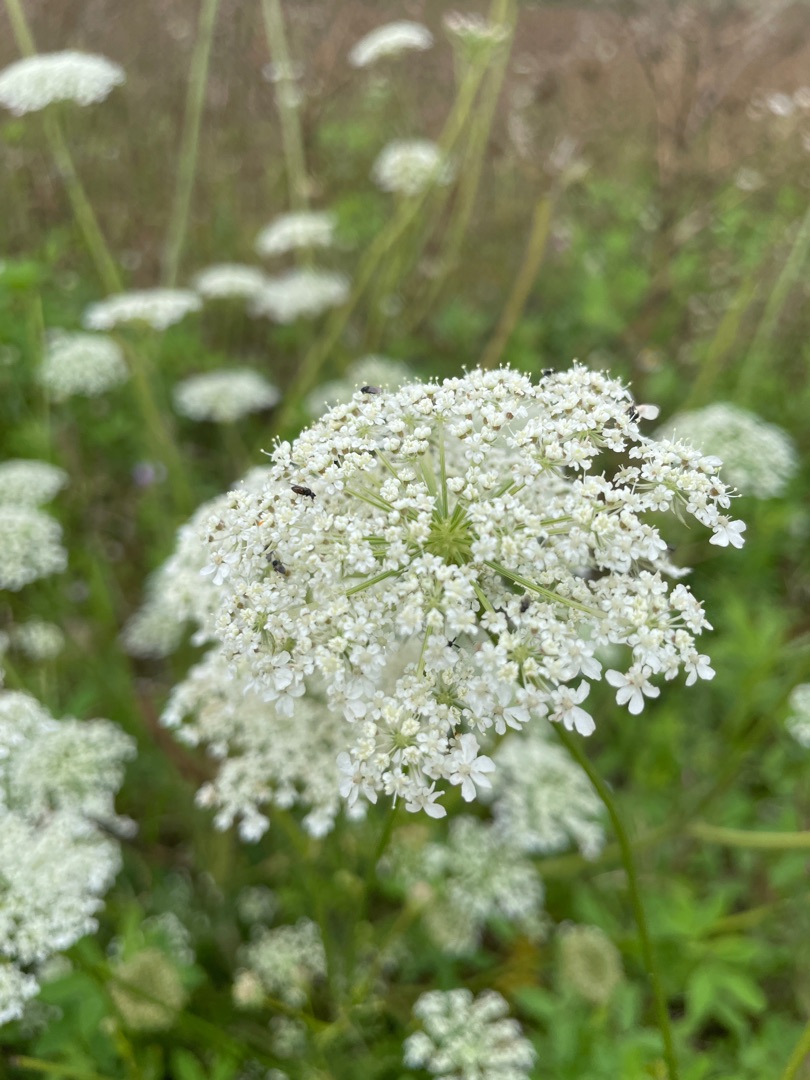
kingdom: Plantae
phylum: Tracheophyta
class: Magnoliopsida
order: Apiales
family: Apiaceae
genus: Daucus
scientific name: Daucus carota
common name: Gulerod
